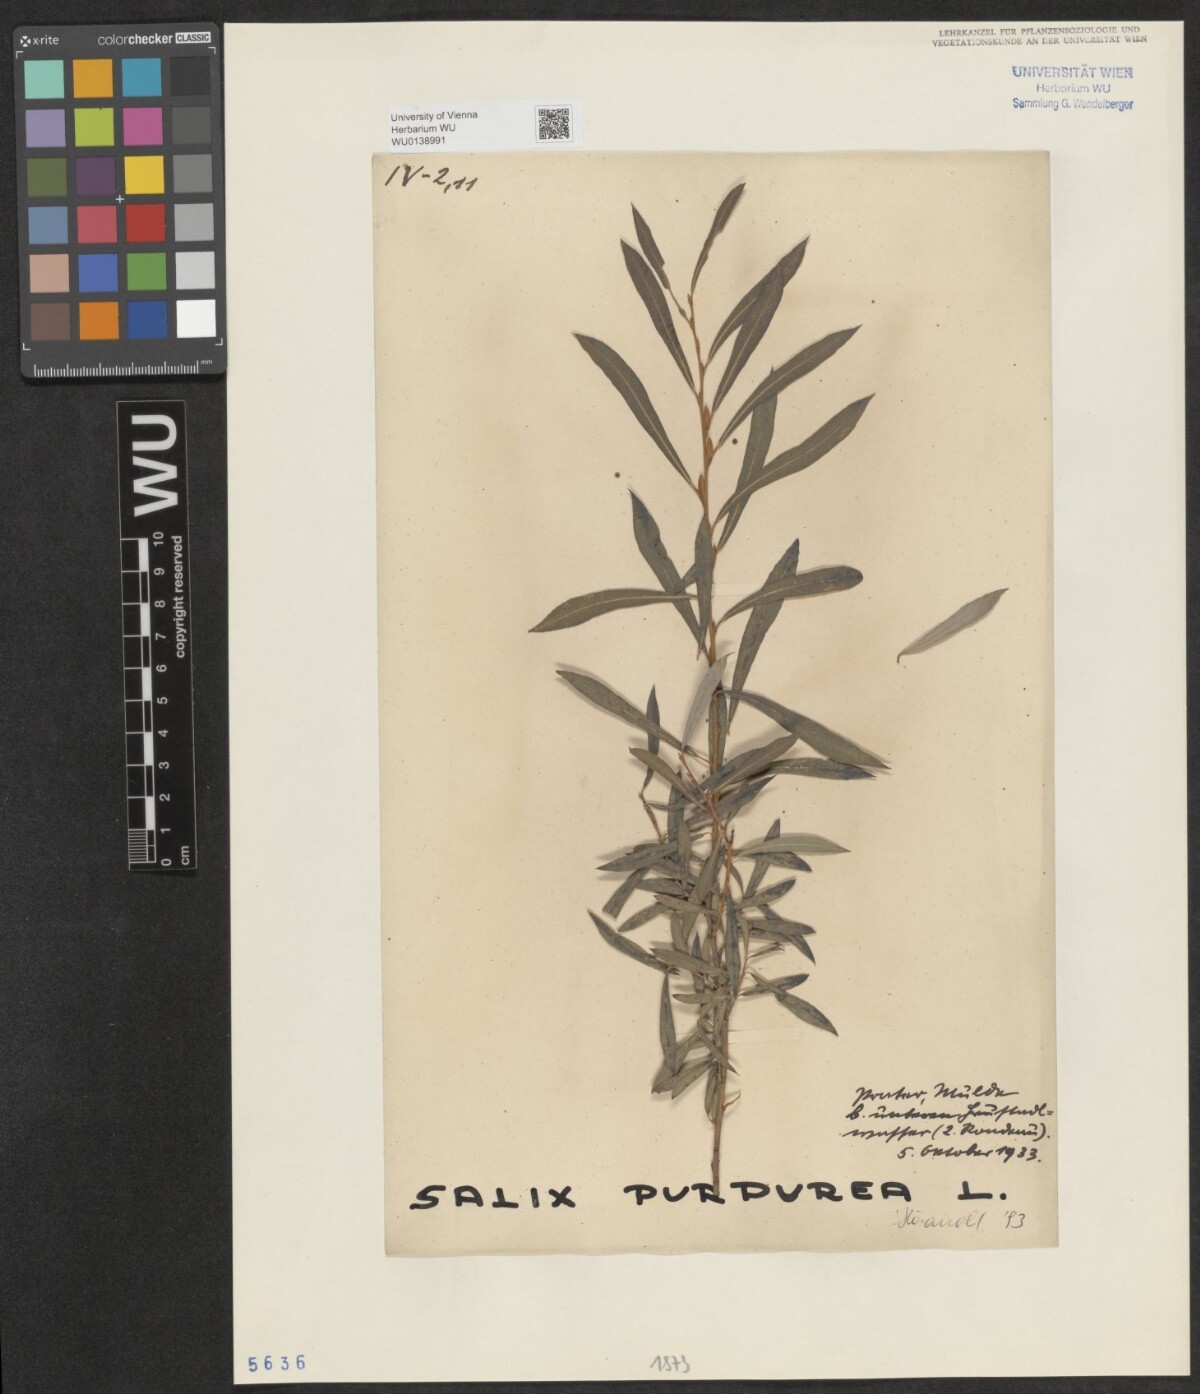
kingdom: Plantae
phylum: Tracheophyta
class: Magnoliopsida
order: Malpighiales
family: Salicaceae
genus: Salix
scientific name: Salix purpurea
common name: Purple willow
